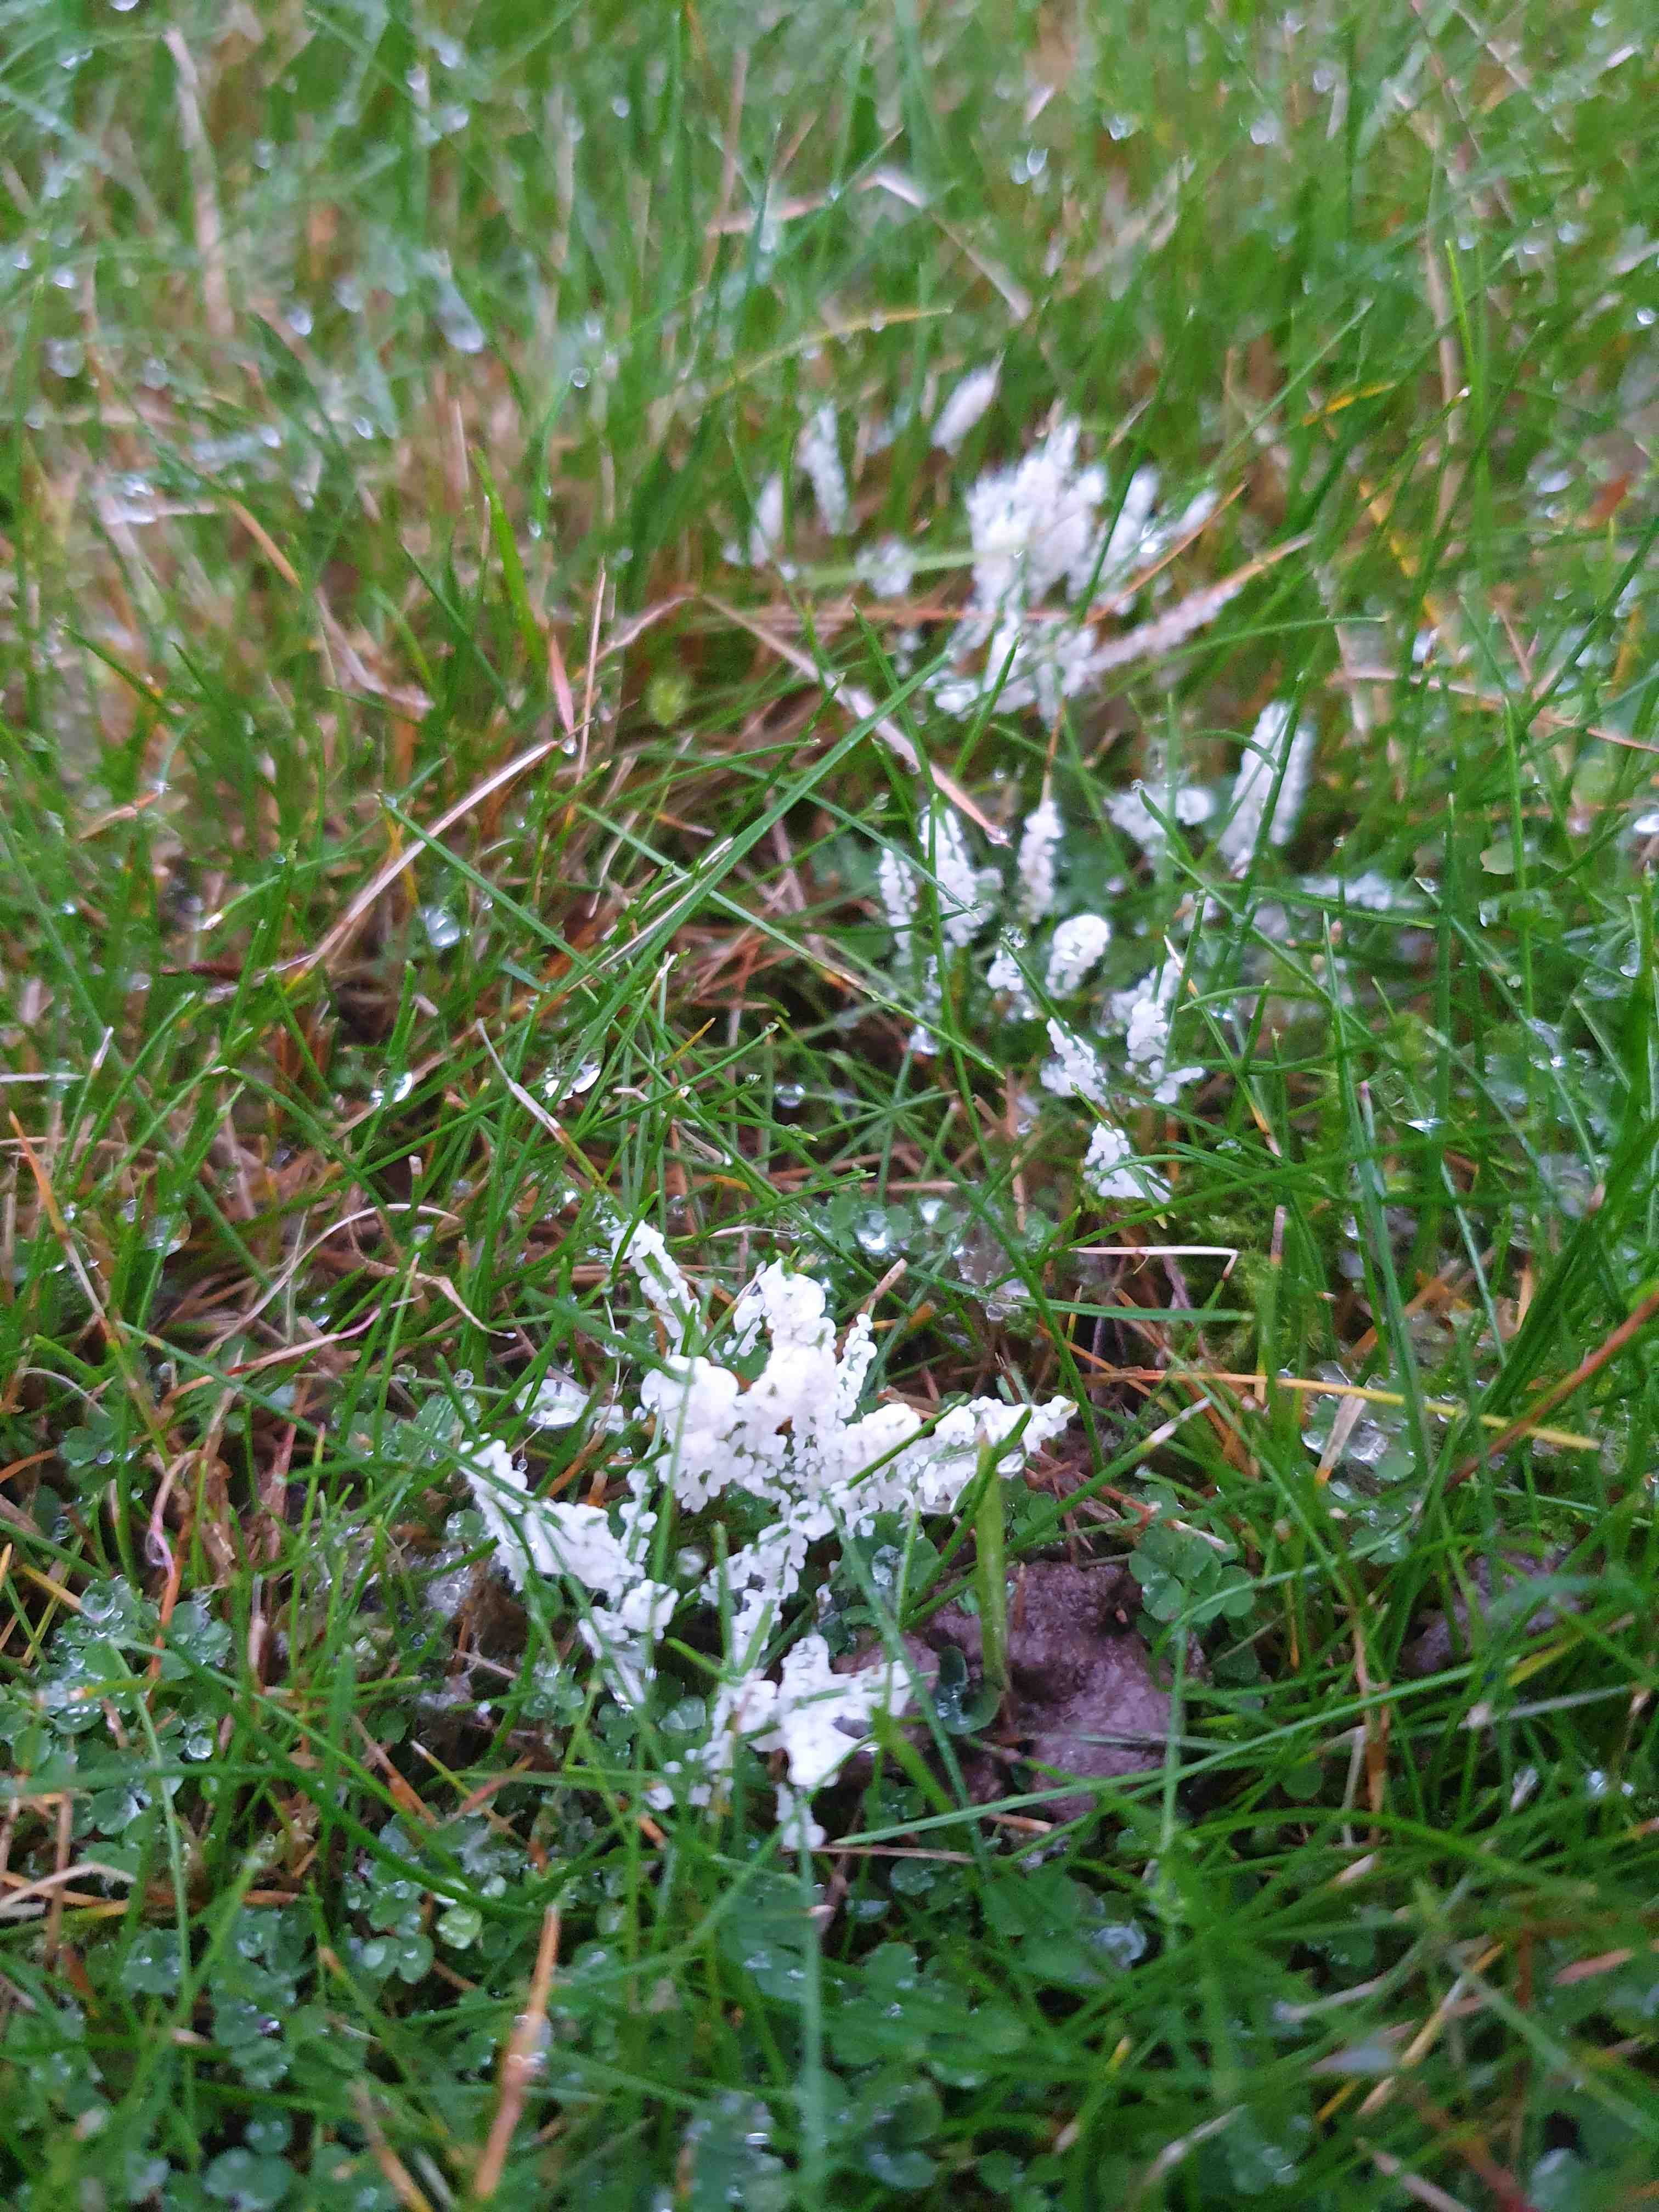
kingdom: Protozoa
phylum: Mycetozoa
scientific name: Mycetozoa
